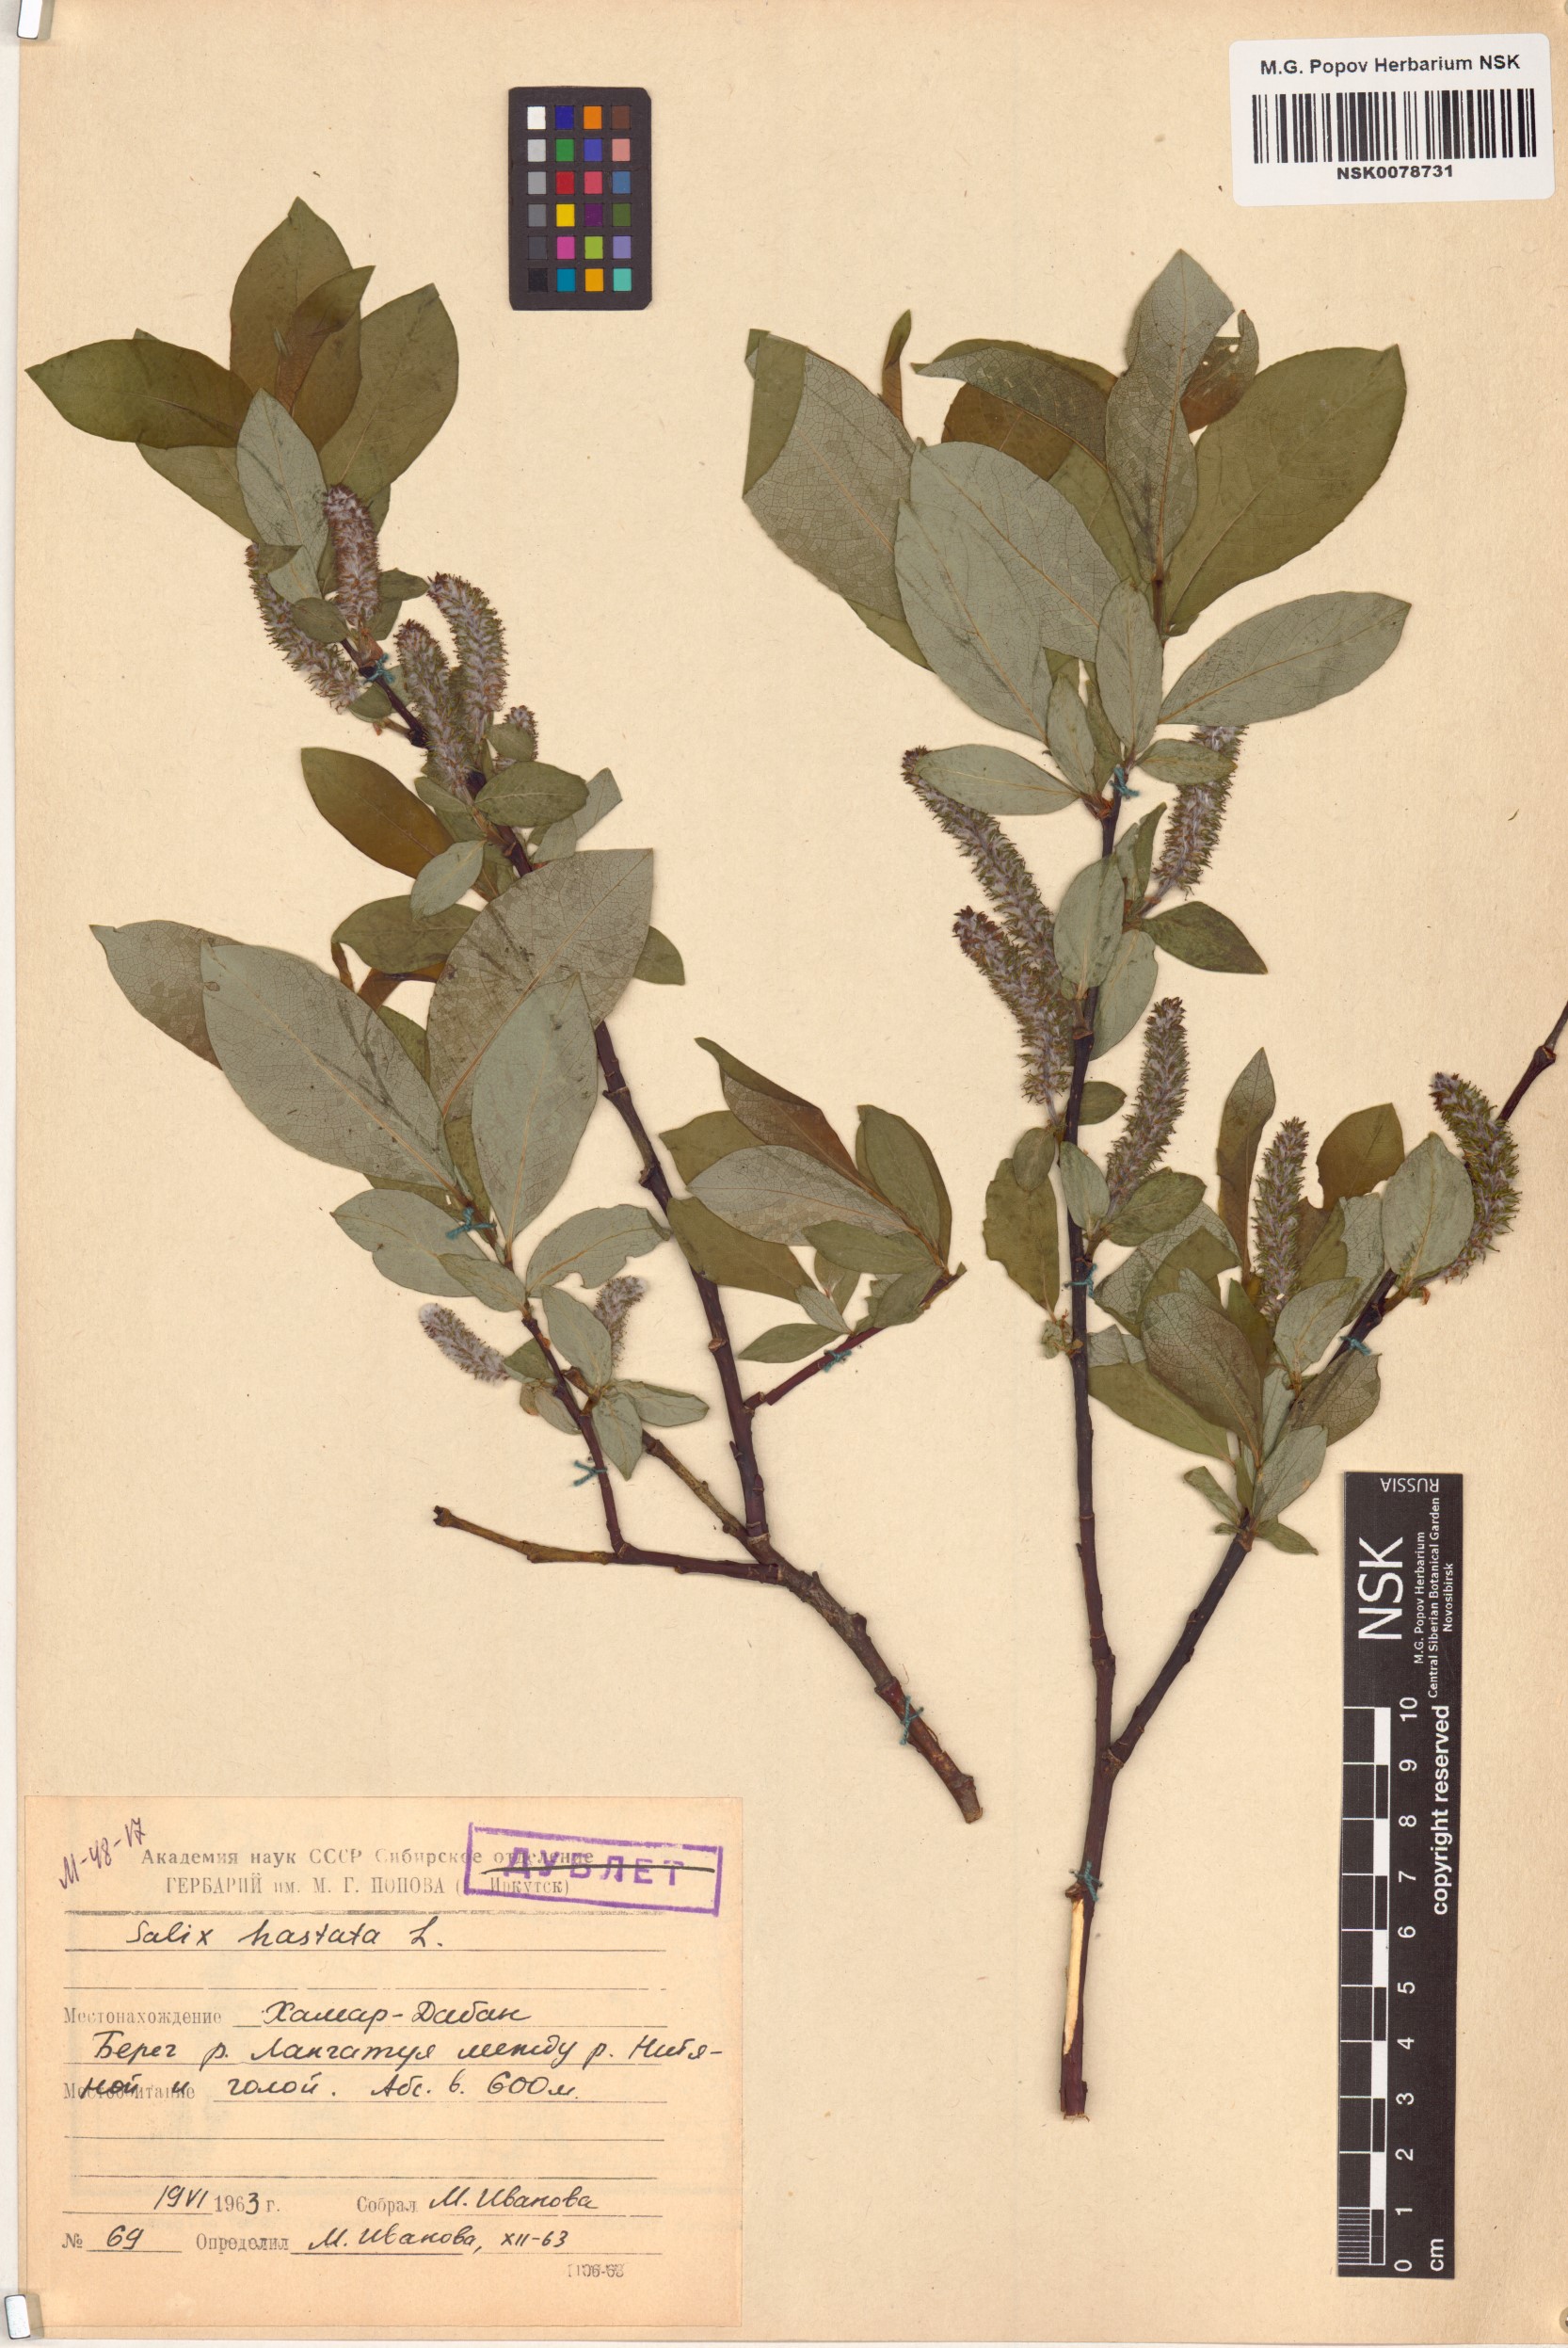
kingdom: Plantae
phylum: Tracheophyta
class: Magnoliopsida
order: Malpighiales
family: Salicaceae
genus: Salix
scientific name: Salix hastata
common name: Halberd willow
